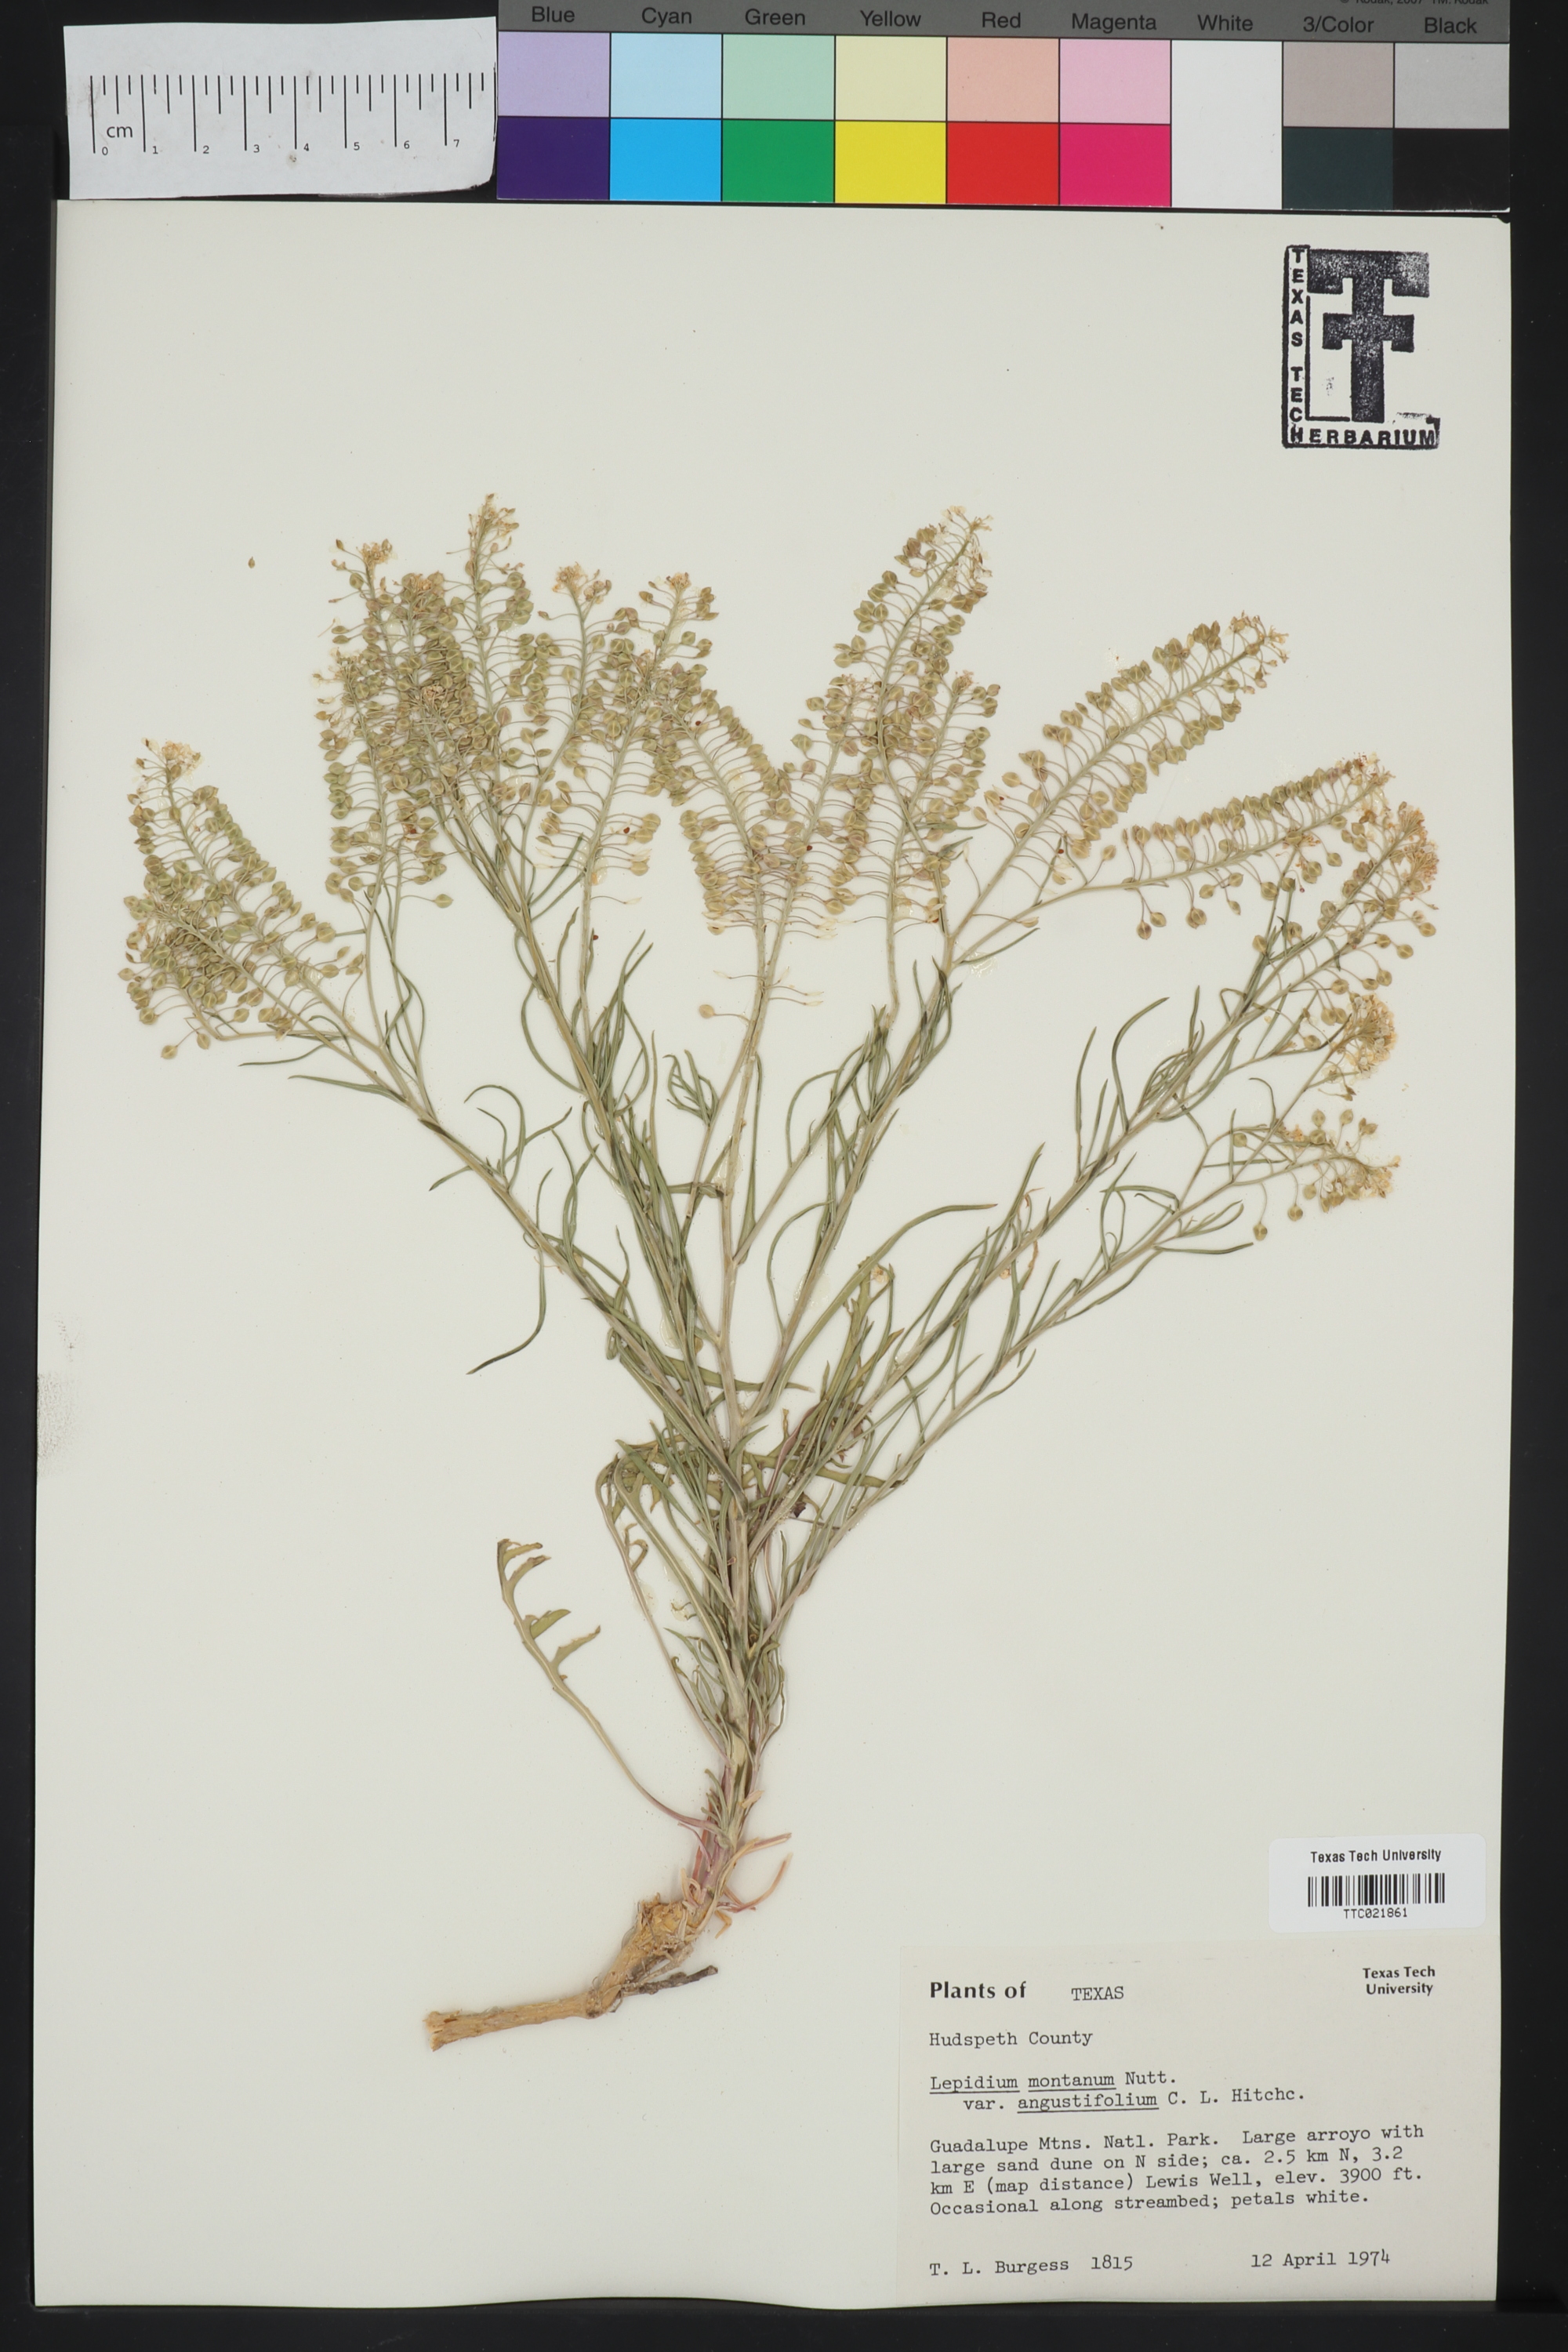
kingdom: Plantae
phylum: Tracheophyta
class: Magnoliopsida
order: Brassicales
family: Brassicaceae
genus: Lepidium
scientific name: Lepidium alyssoides
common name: Mesa pepperweed
